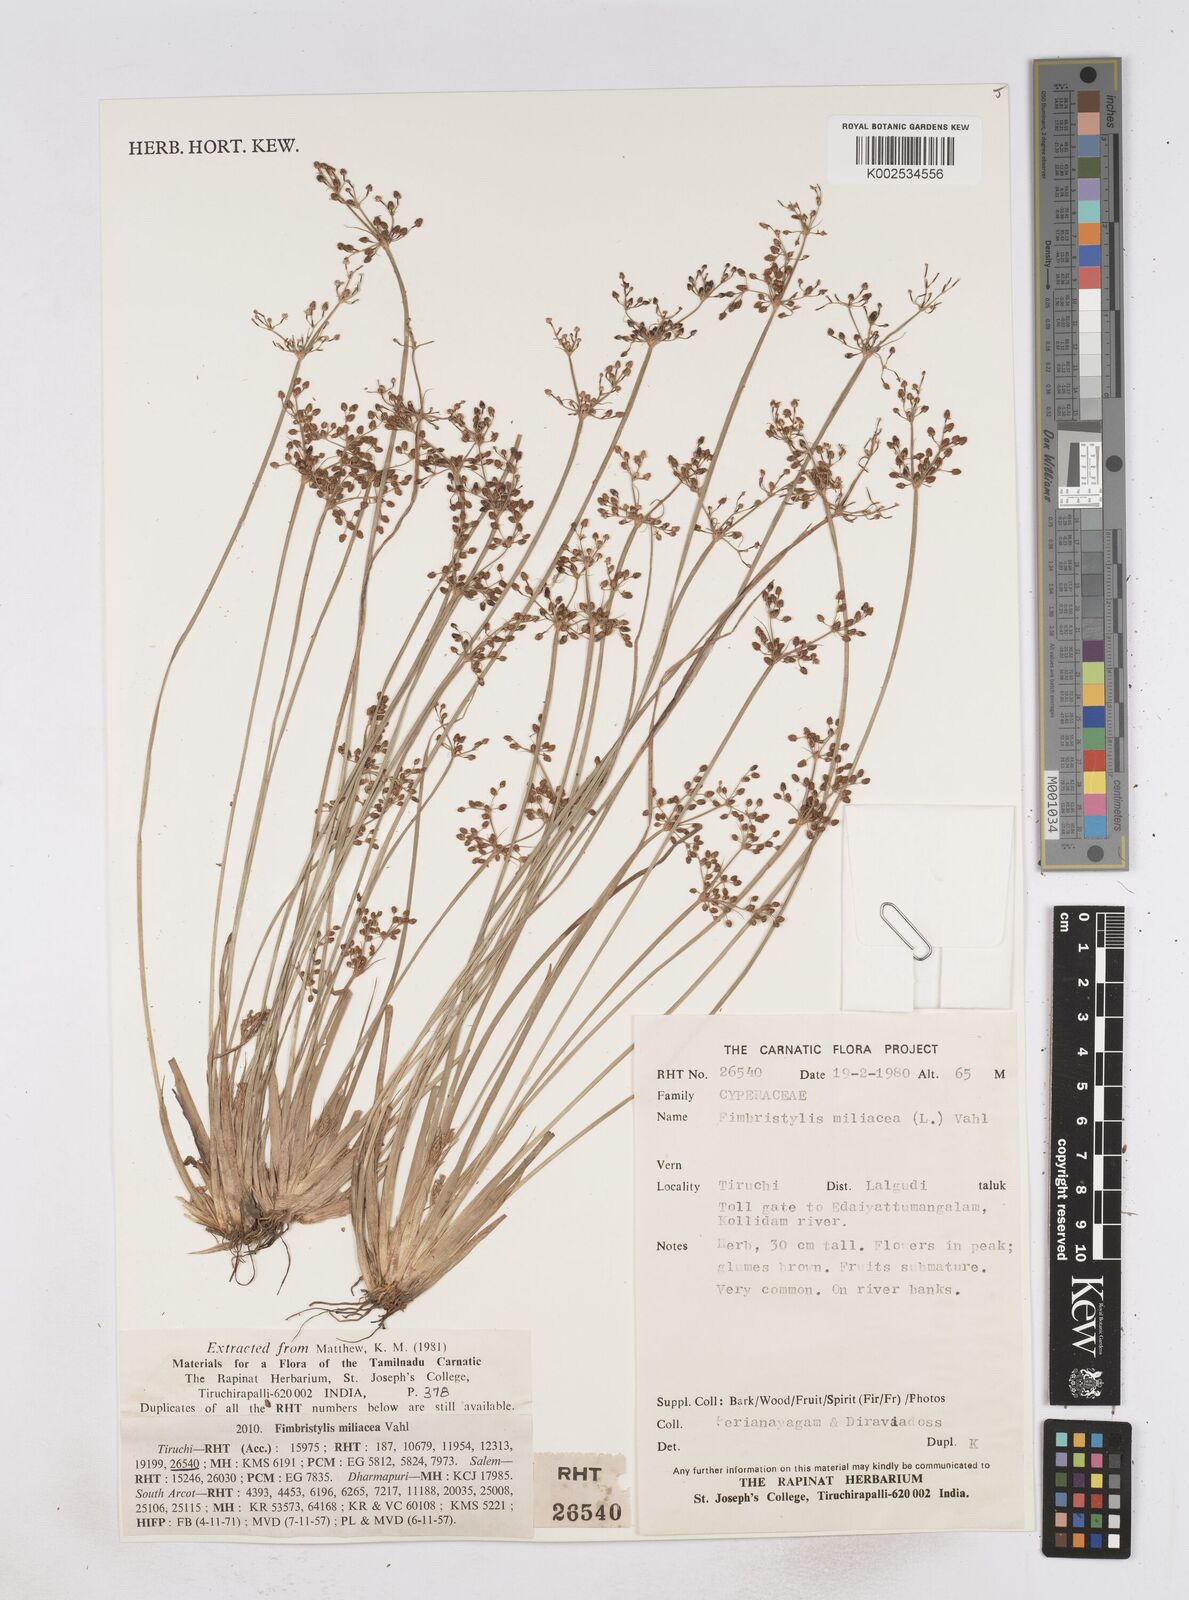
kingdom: Plantae
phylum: Tracheophyta
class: Liliopsida
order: Poales
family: Cyperaceae
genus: Fimbristylis
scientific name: Fimbristylis quinquangularis
